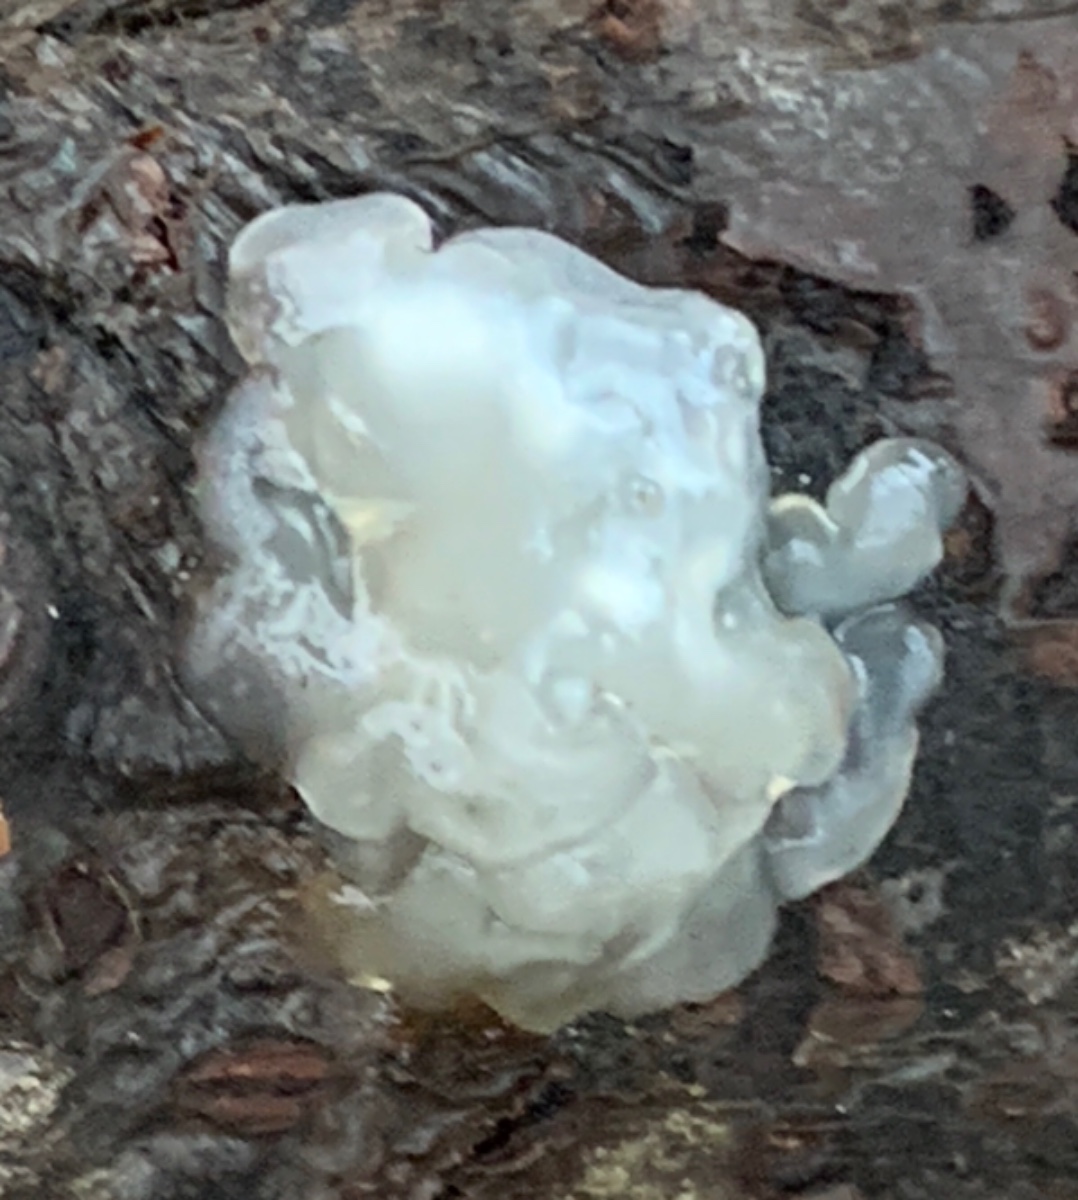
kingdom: Fungi
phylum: Basidiomycota
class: Agaricomycetes
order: Auriculariales
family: Hyaloriaceae
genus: Myxarium
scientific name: Myxarium nucleatum
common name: klar bævretop
